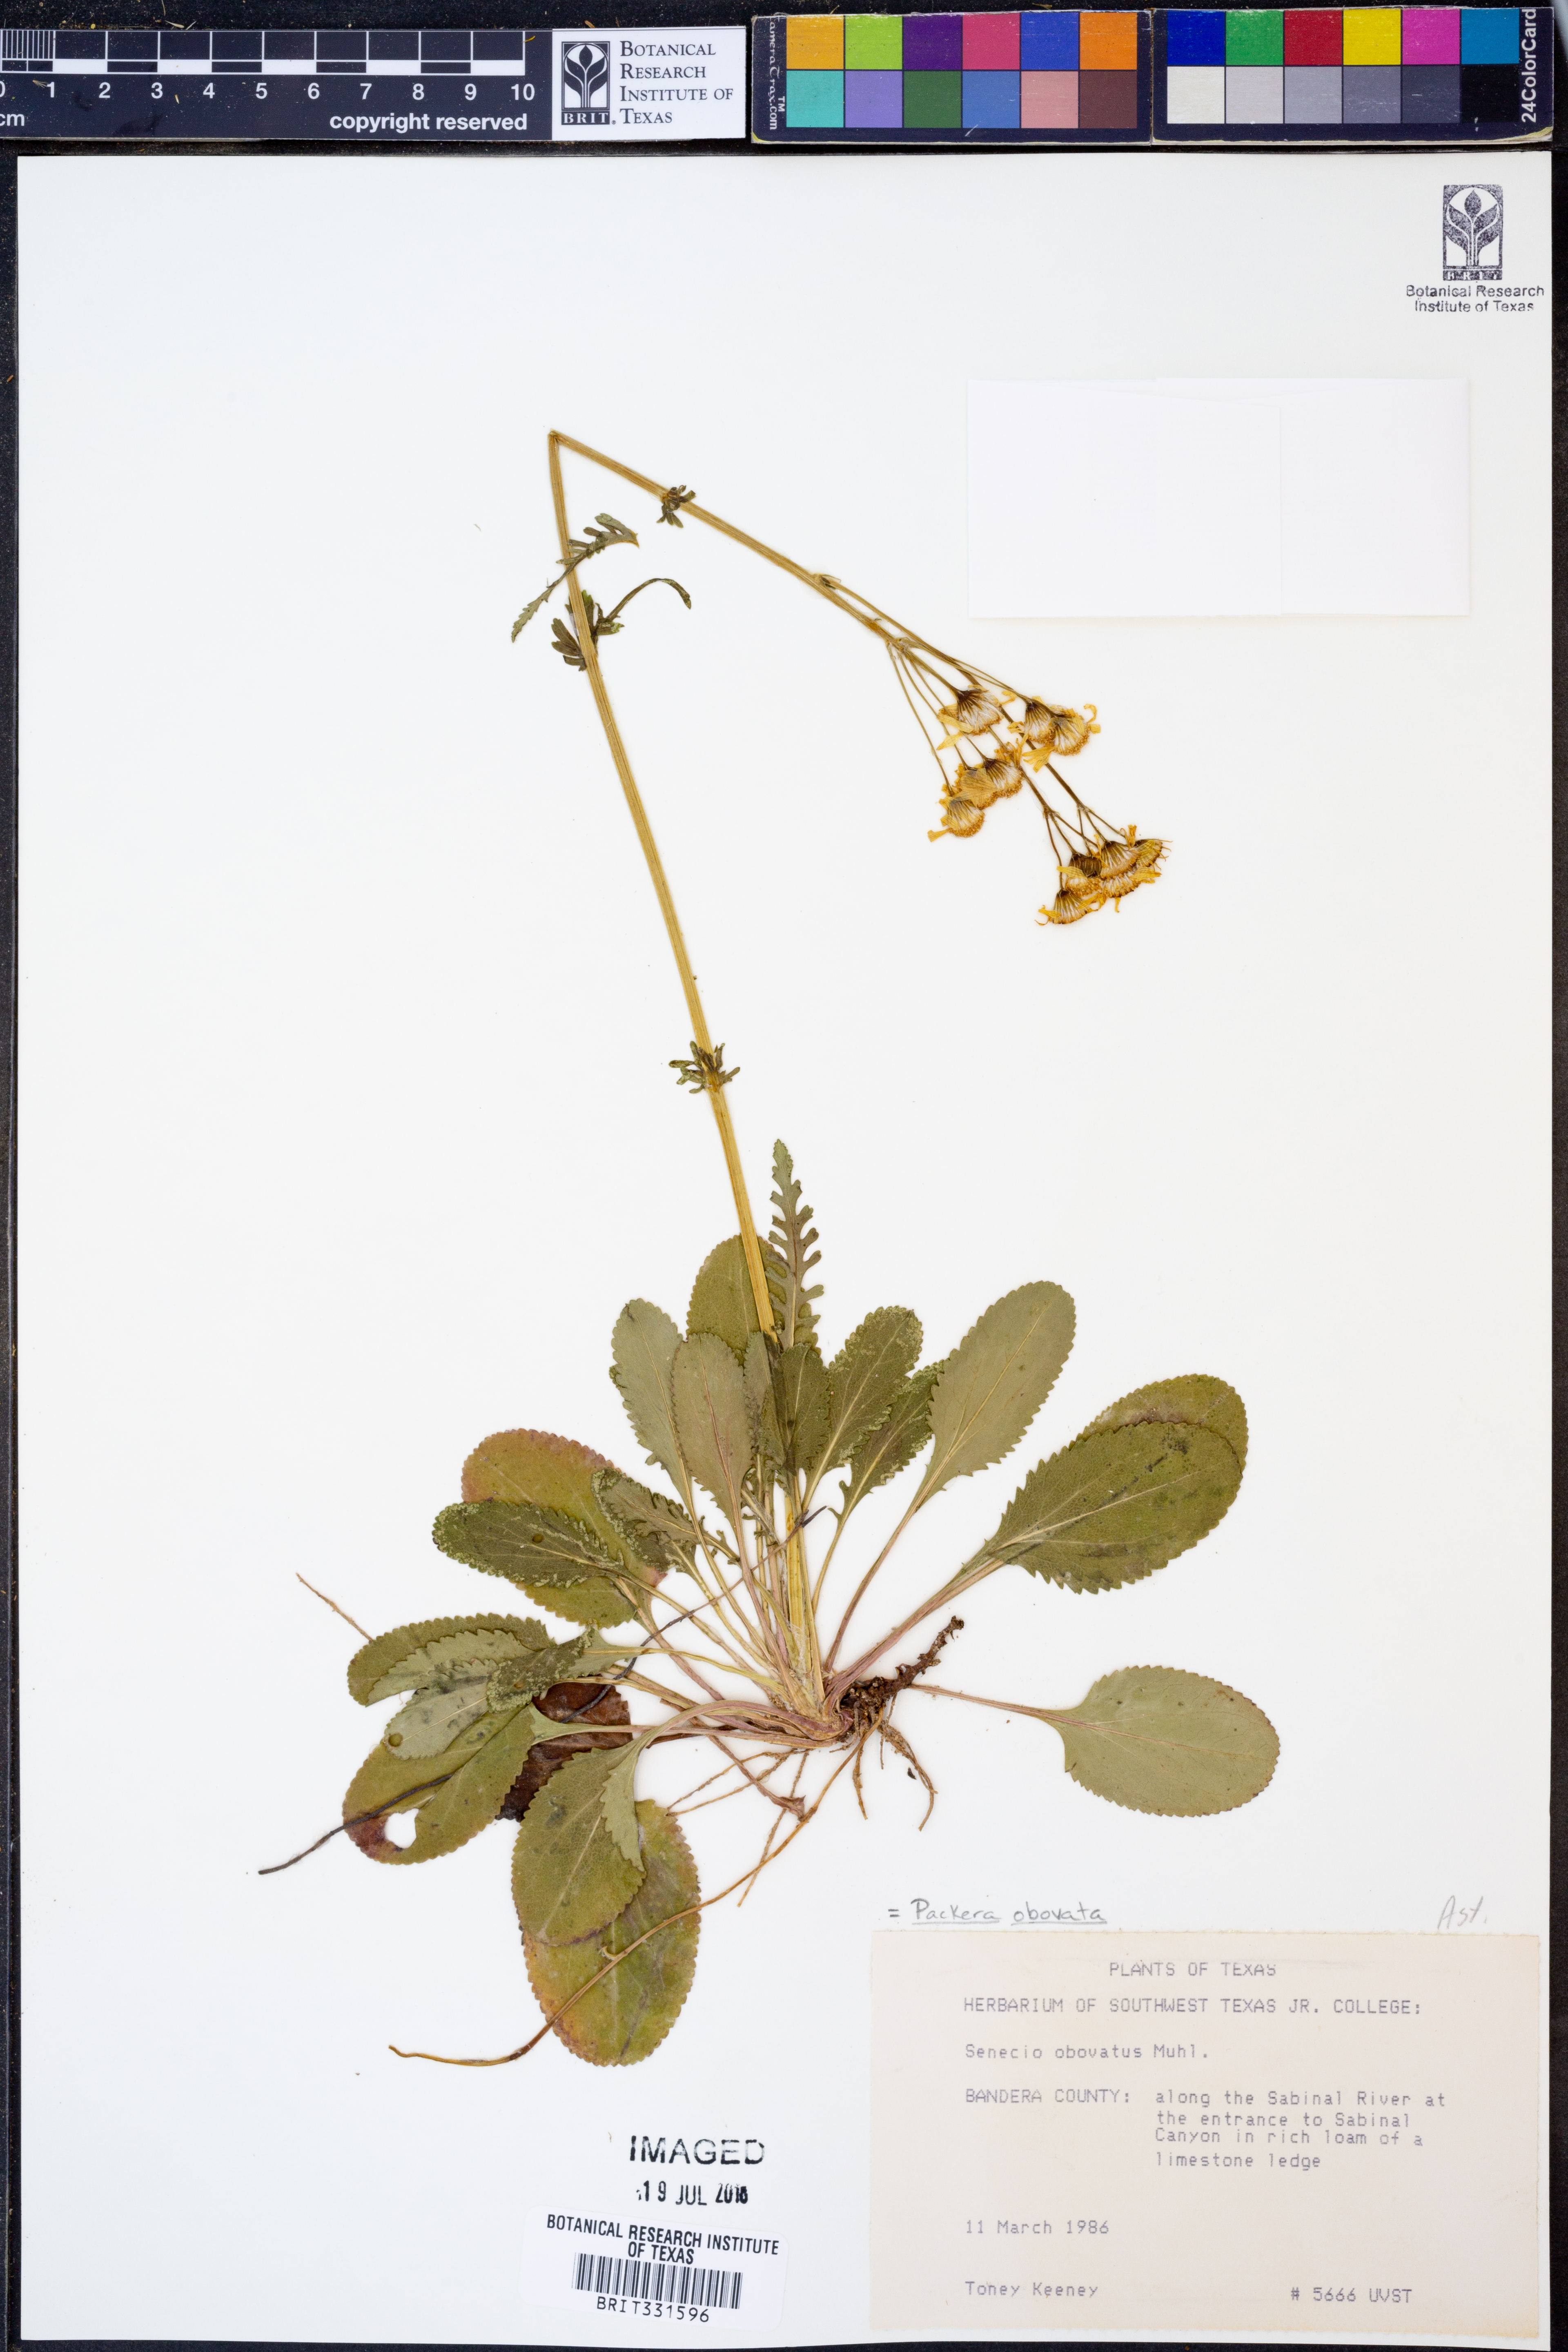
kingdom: Plantae
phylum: Tracheophyta
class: Magnoliopsida
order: Asterales
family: Asteraceae
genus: Packera
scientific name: Packera obovata
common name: Round-leaf ragwort
